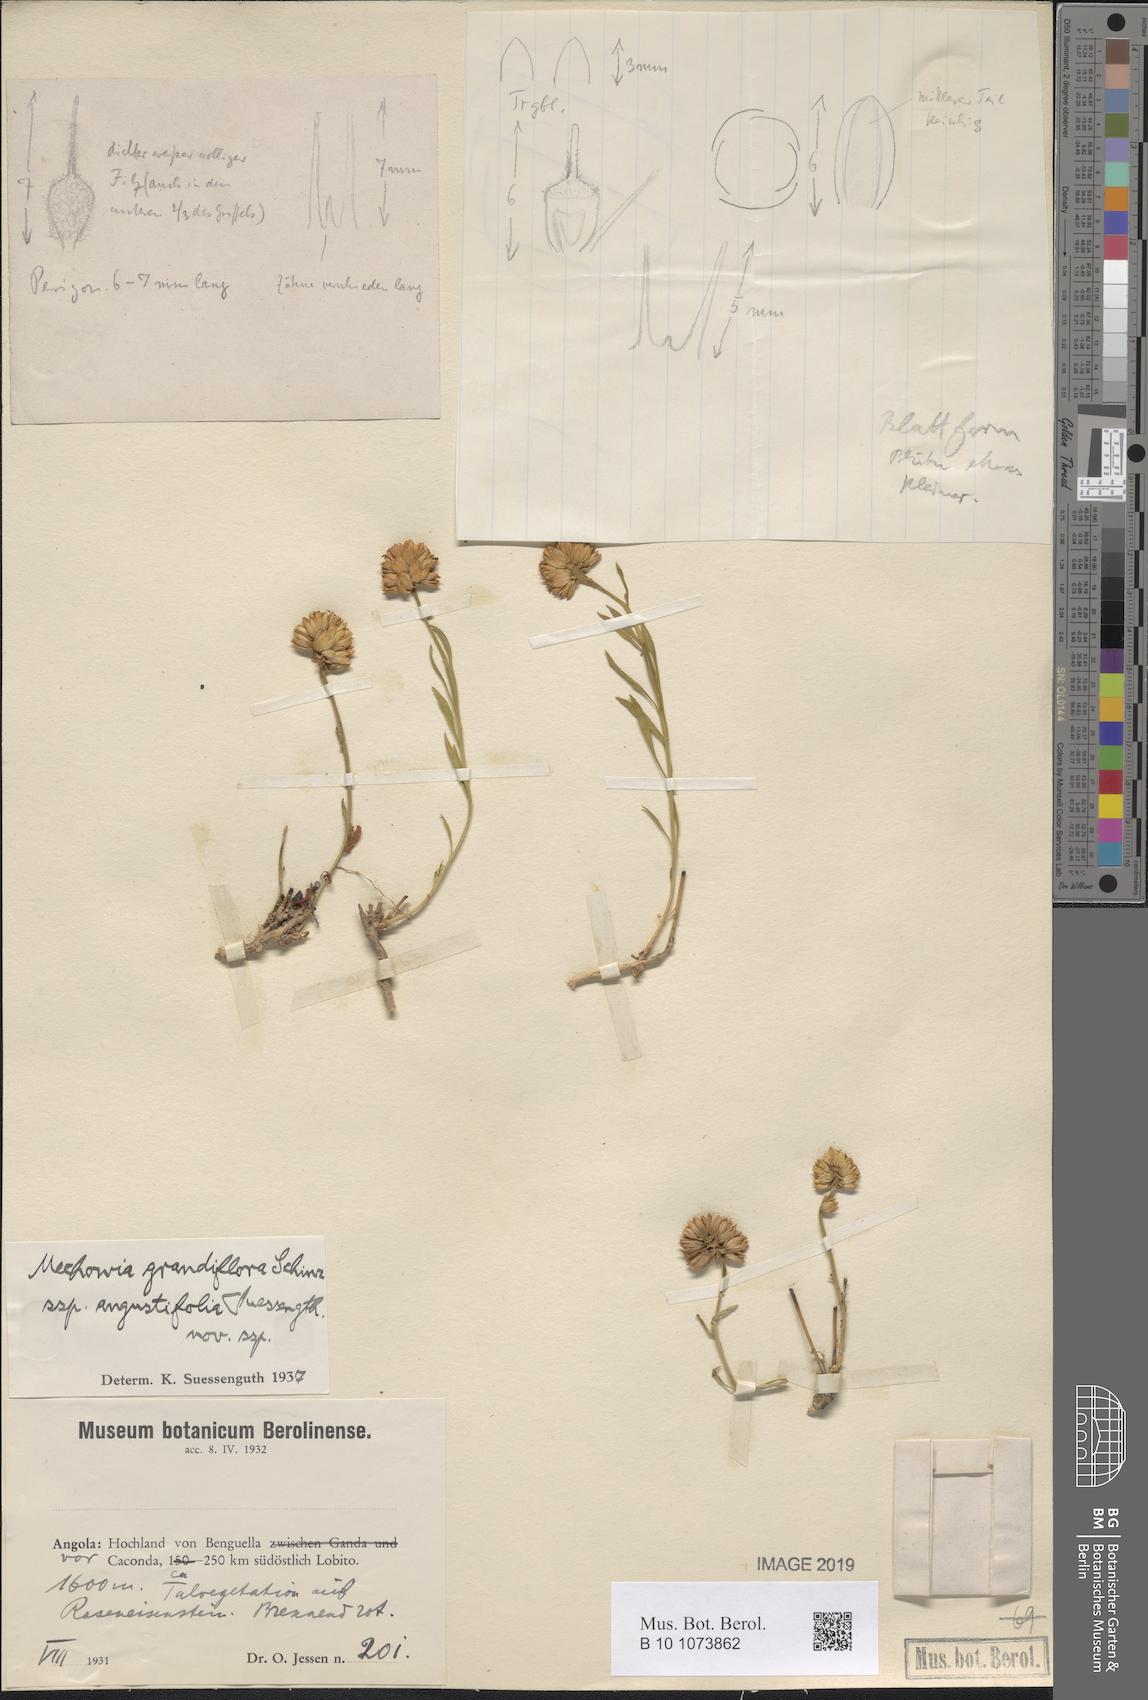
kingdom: Plantae
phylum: Tracheophyta
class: Magnoliopsida
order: Caryophyllales
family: Amaranthaceae
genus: Mechowia
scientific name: Mechowia grandiflora
